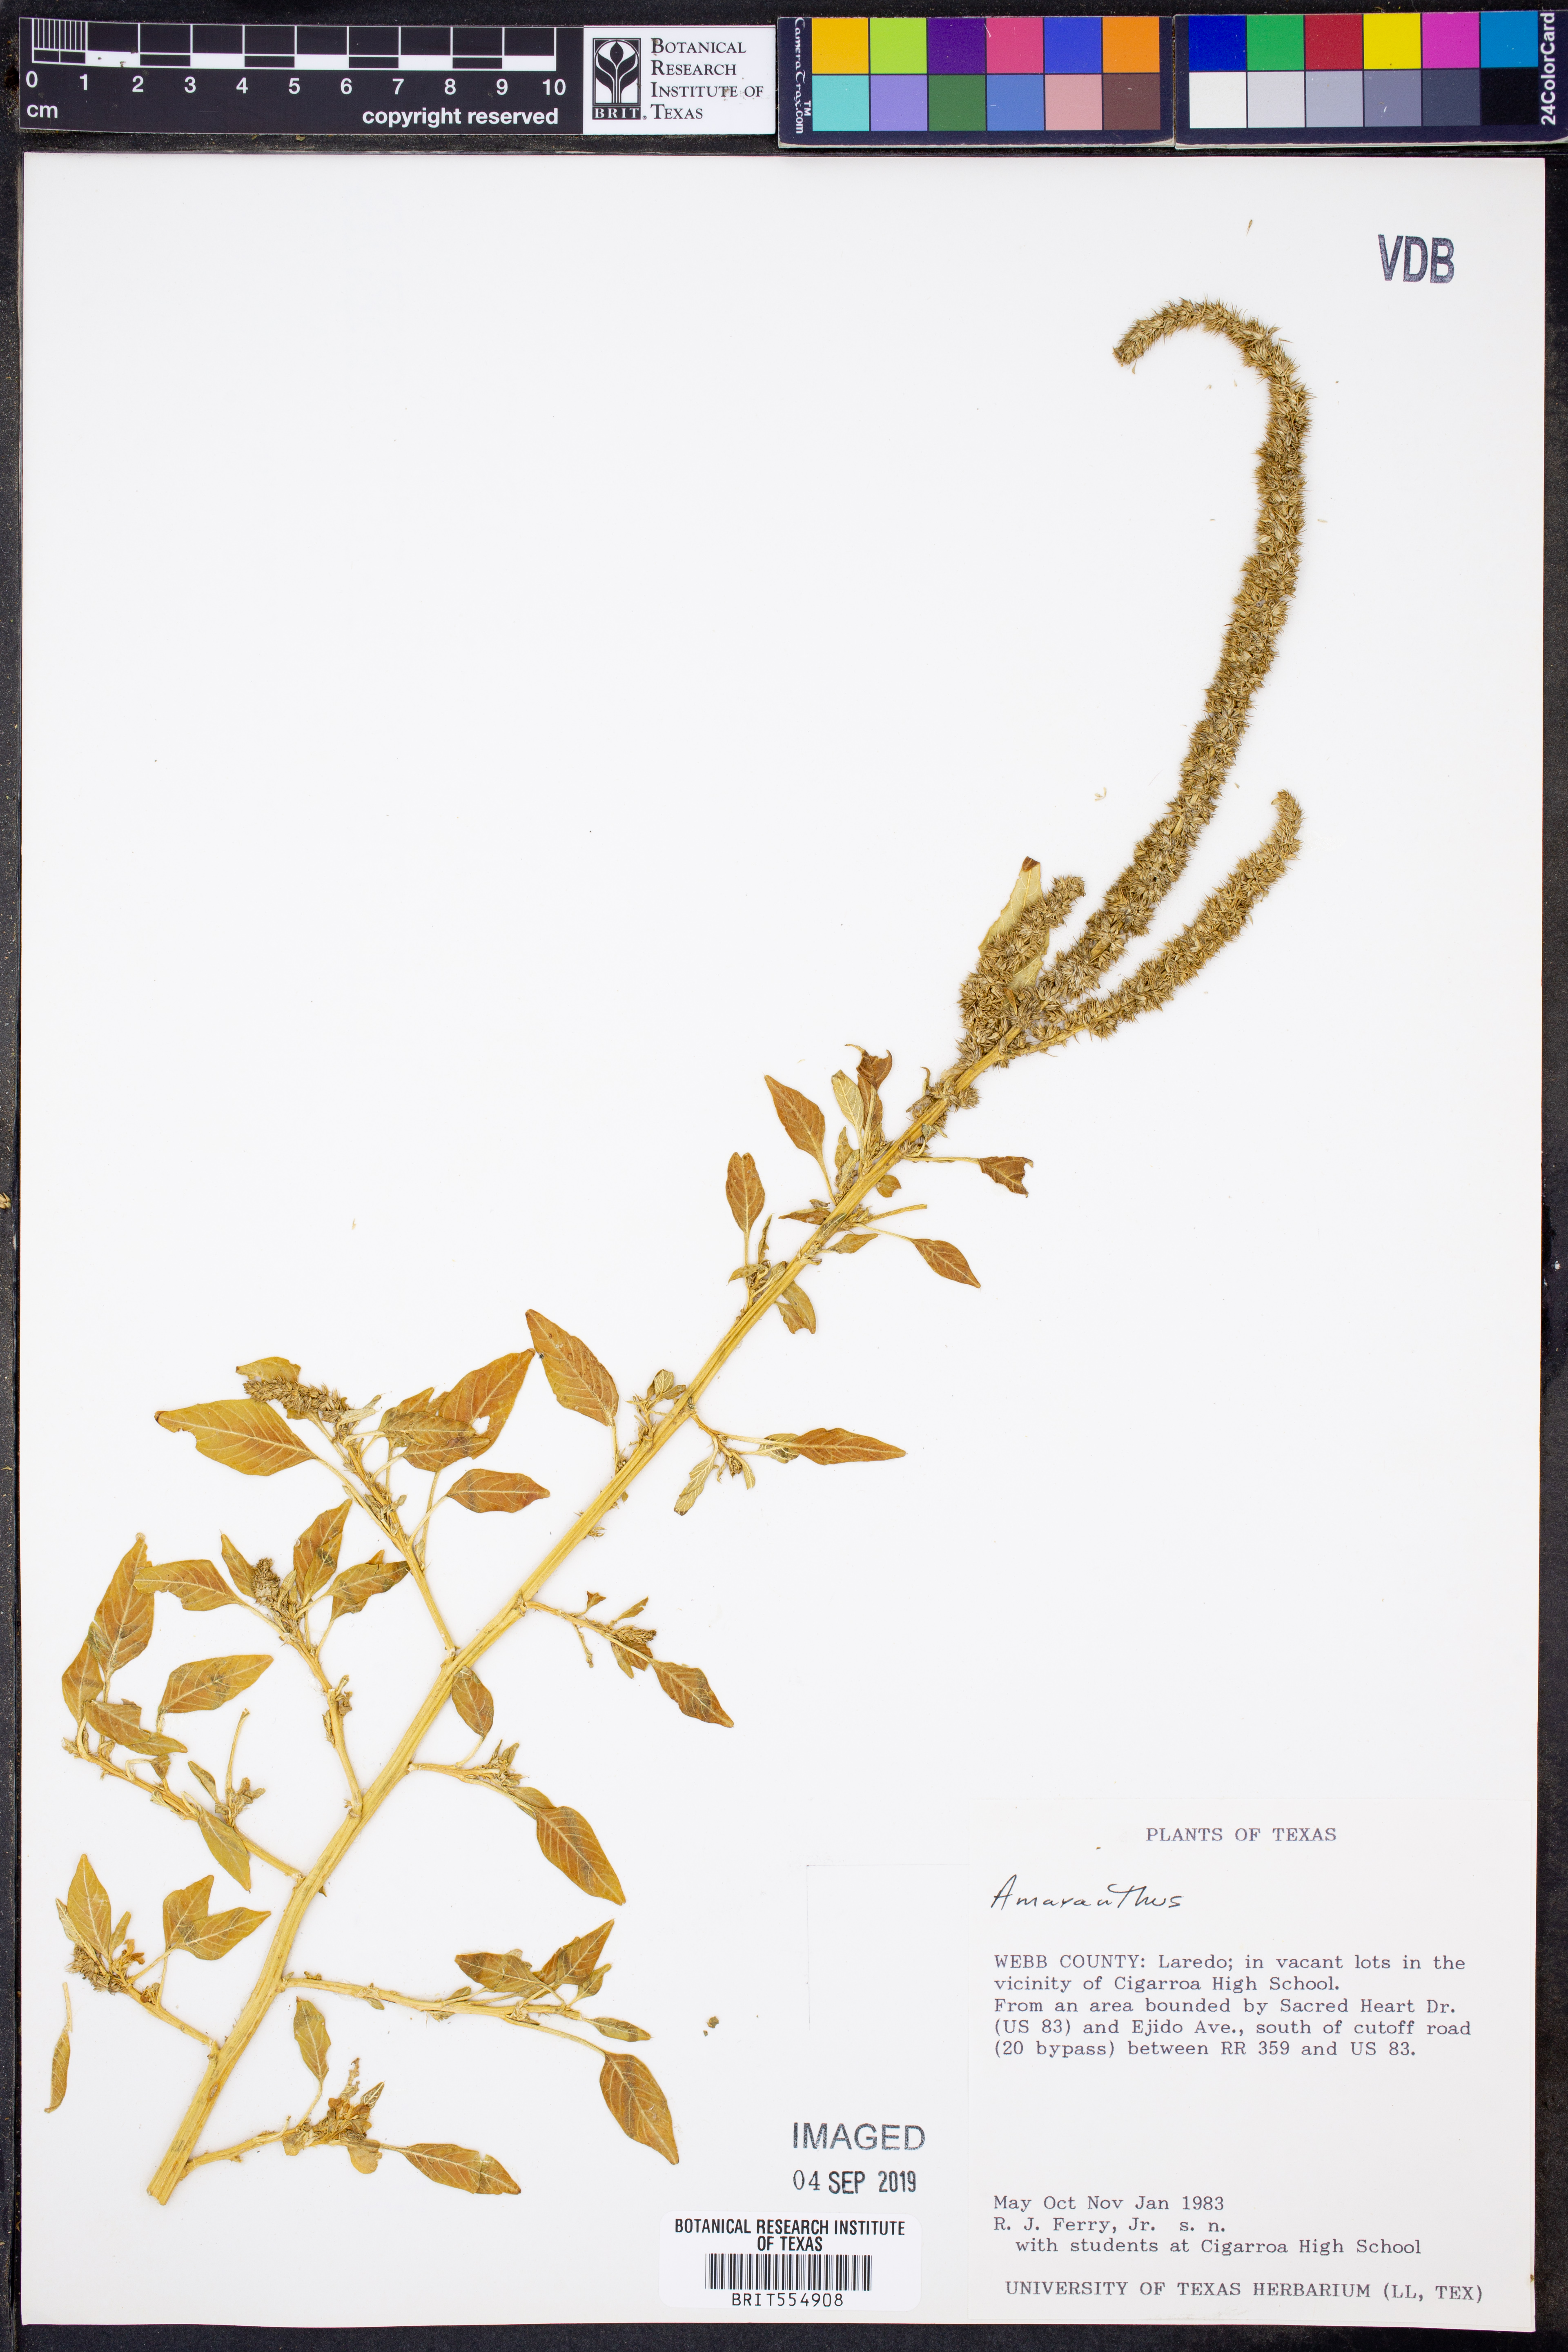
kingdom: Plantae
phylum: Tracheophyta
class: Magnoliopsida
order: Caryophyllales
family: Amaranthaceae
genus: Amaranthus
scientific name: Amaranthus
